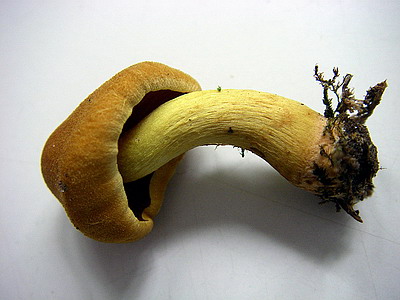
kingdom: Fungi
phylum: Basidiomycota
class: Agaricomycetes
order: Agaricales
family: Cortinariaceae
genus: Cortinarius
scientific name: Cortinarius cinnamomeus
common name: kanel-slørhat
